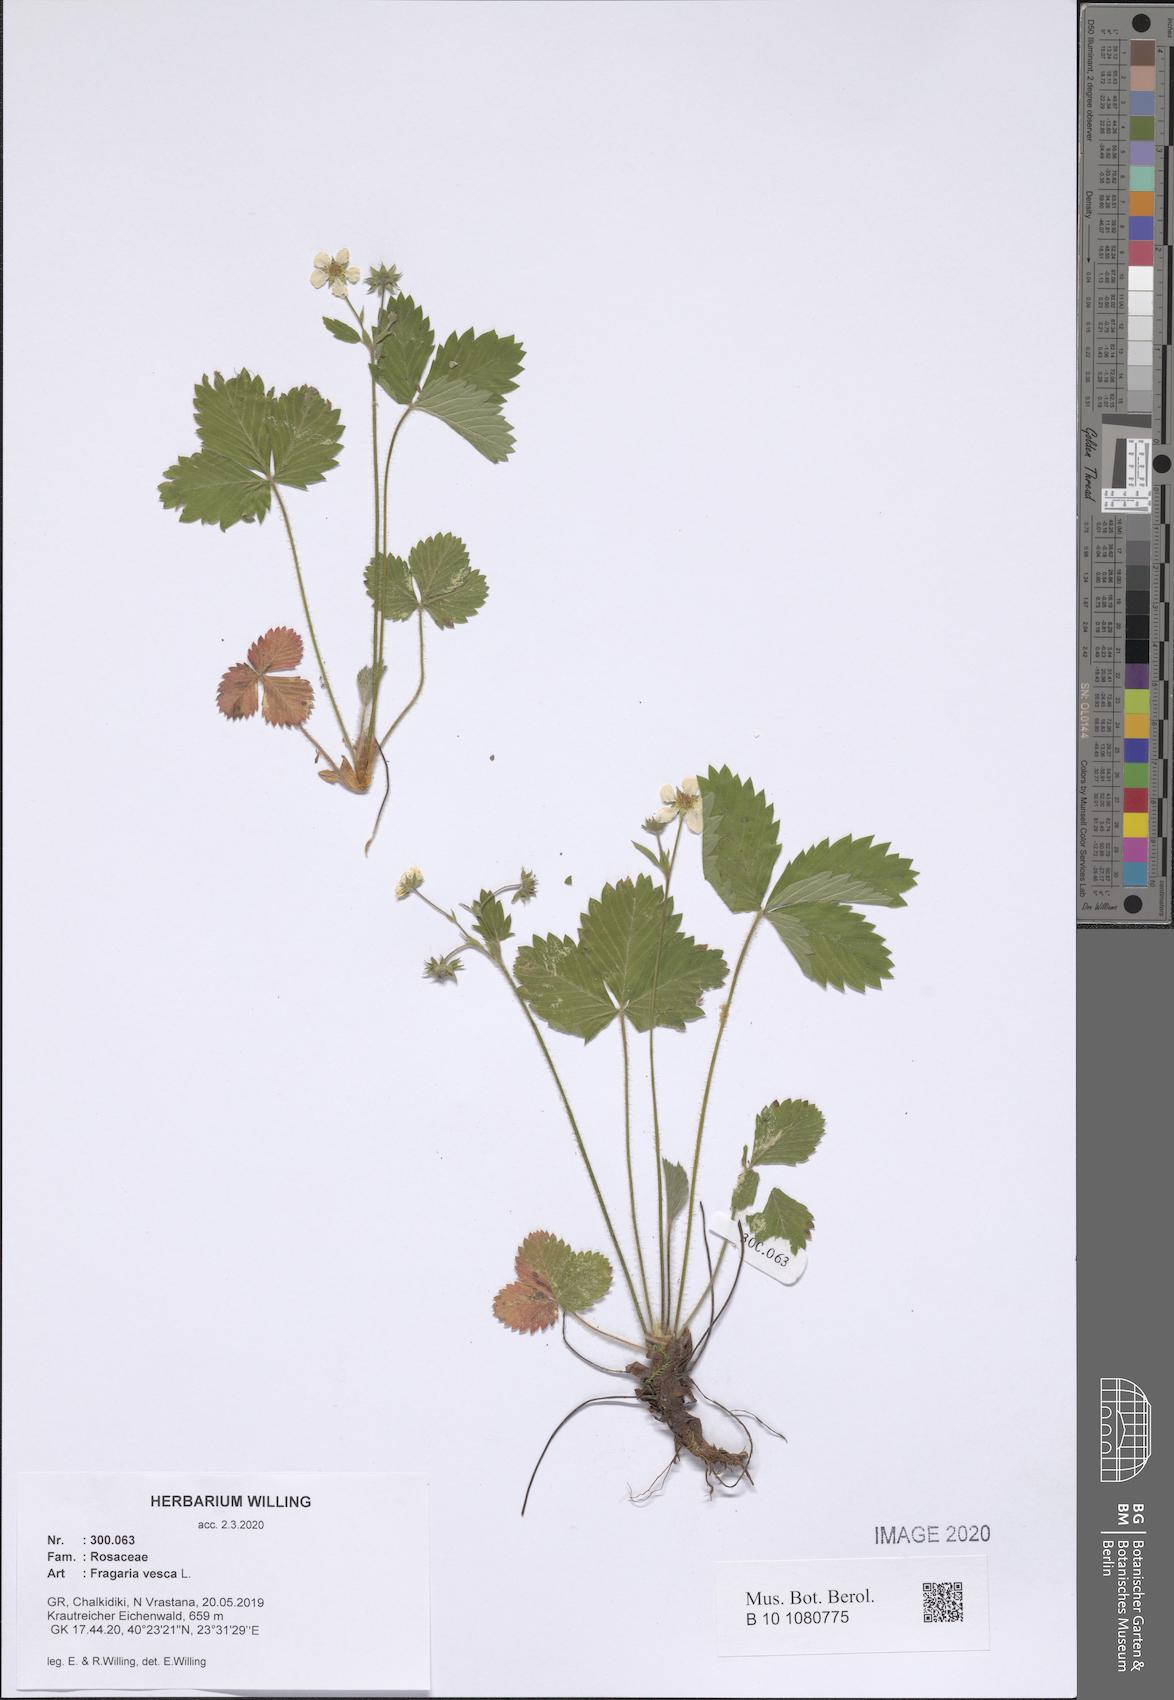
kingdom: Plantae
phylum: Tracheophyta
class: Magnoliopsida
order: Rosales
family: Rosaceae
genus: Fragaria
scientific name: Fragaria vesca
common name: Wild strawberry
